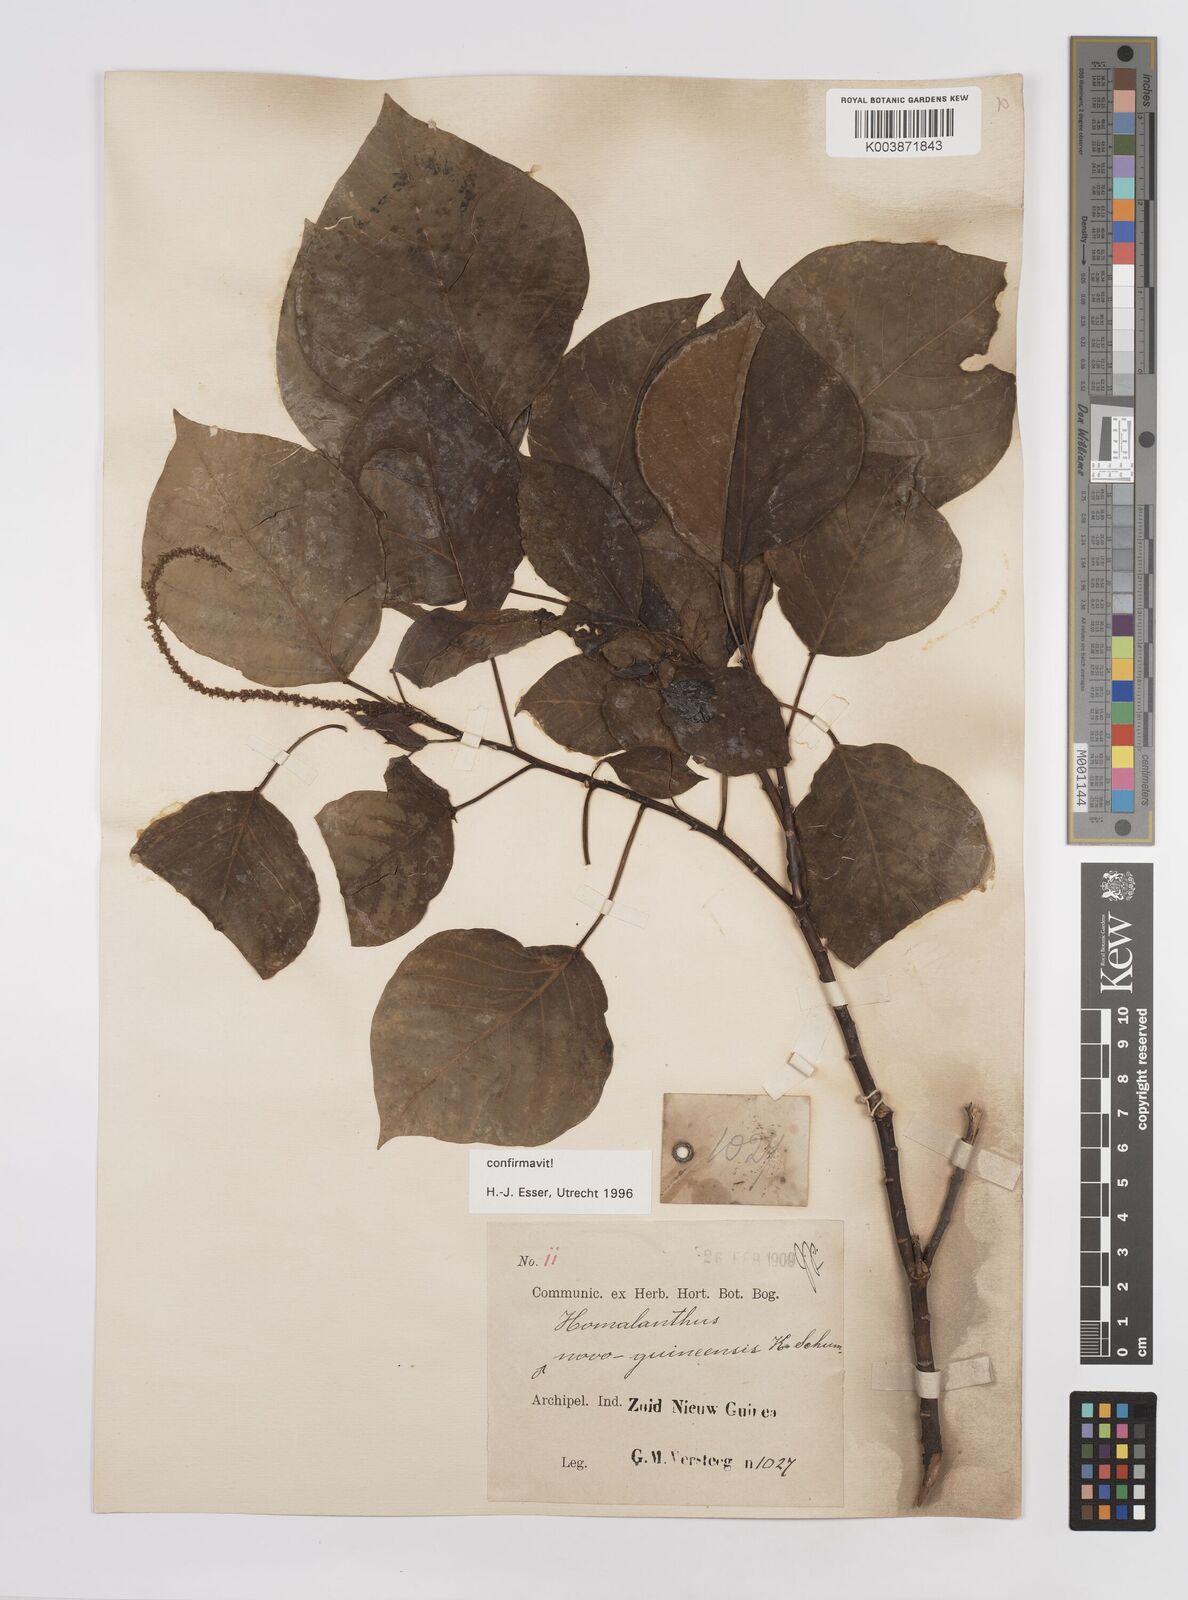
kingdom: Plantae
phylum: Tracheophyta
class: Magnoliopsida
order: Malpighiales
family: Euphorbiaceae
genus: Homalanthus
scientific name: Homalanthus novoguineensis
